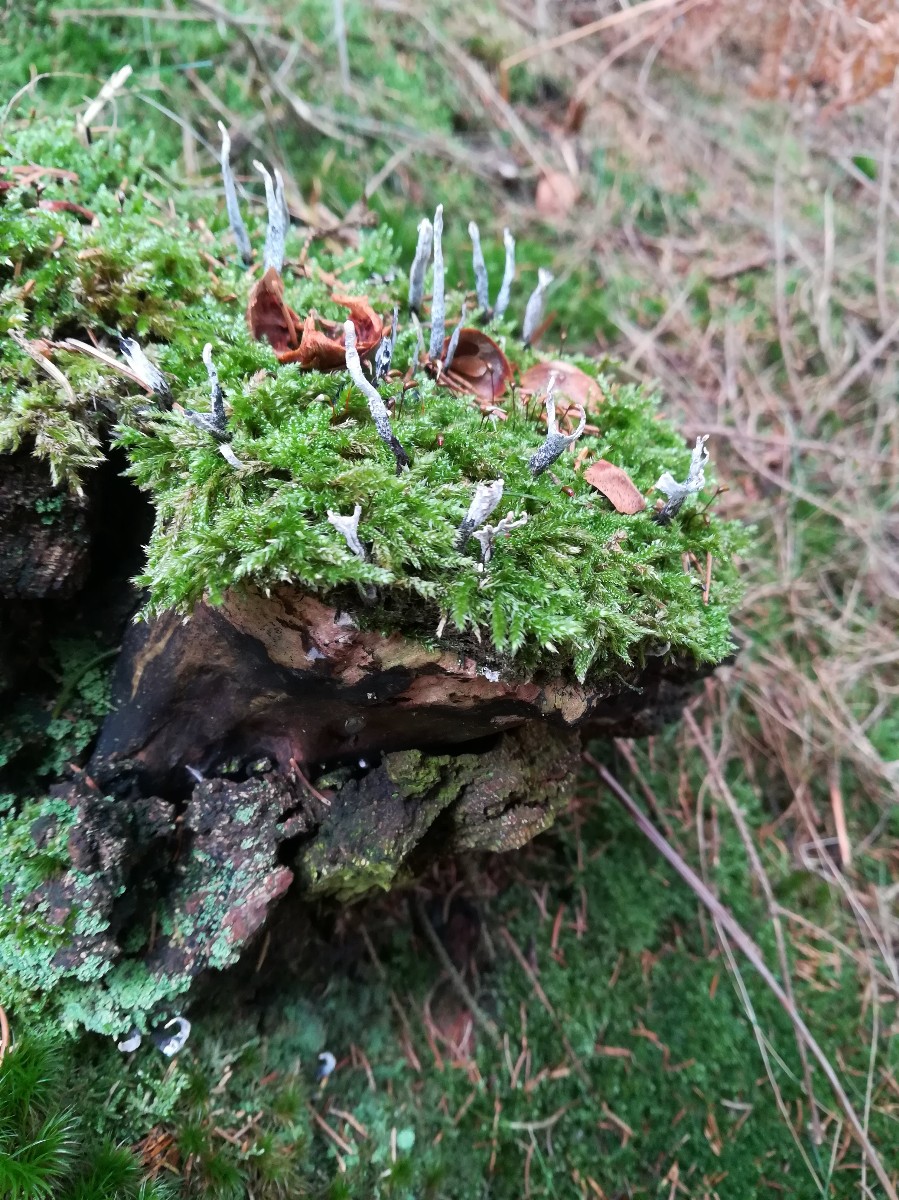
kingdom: Fungi
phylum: Ascomycota
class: Sordariomycetes
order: Xylariales
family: Xylariaceae
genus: Xylaria
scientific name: Xylaria hypoxylon
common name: grenet stødsvamp
